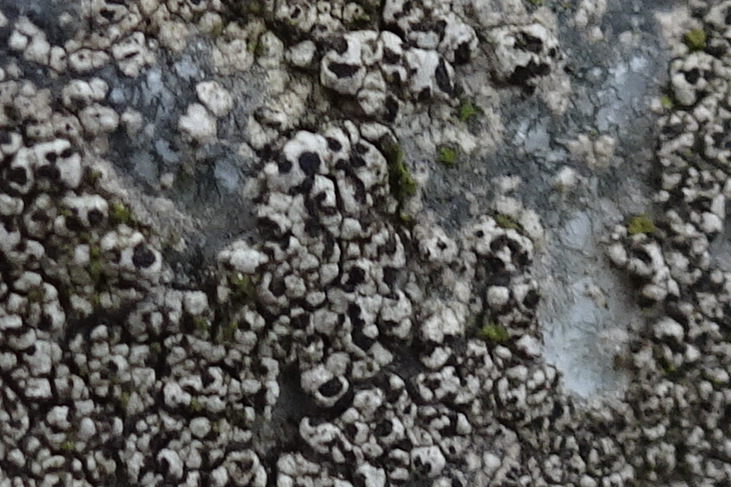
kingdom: Fungi
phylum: Ascomycota
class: Lecanoromycetes
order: Rhizocarpales
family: Rhizocarpaceae
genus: Rhizocarpon
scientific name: Rhizocarpon
